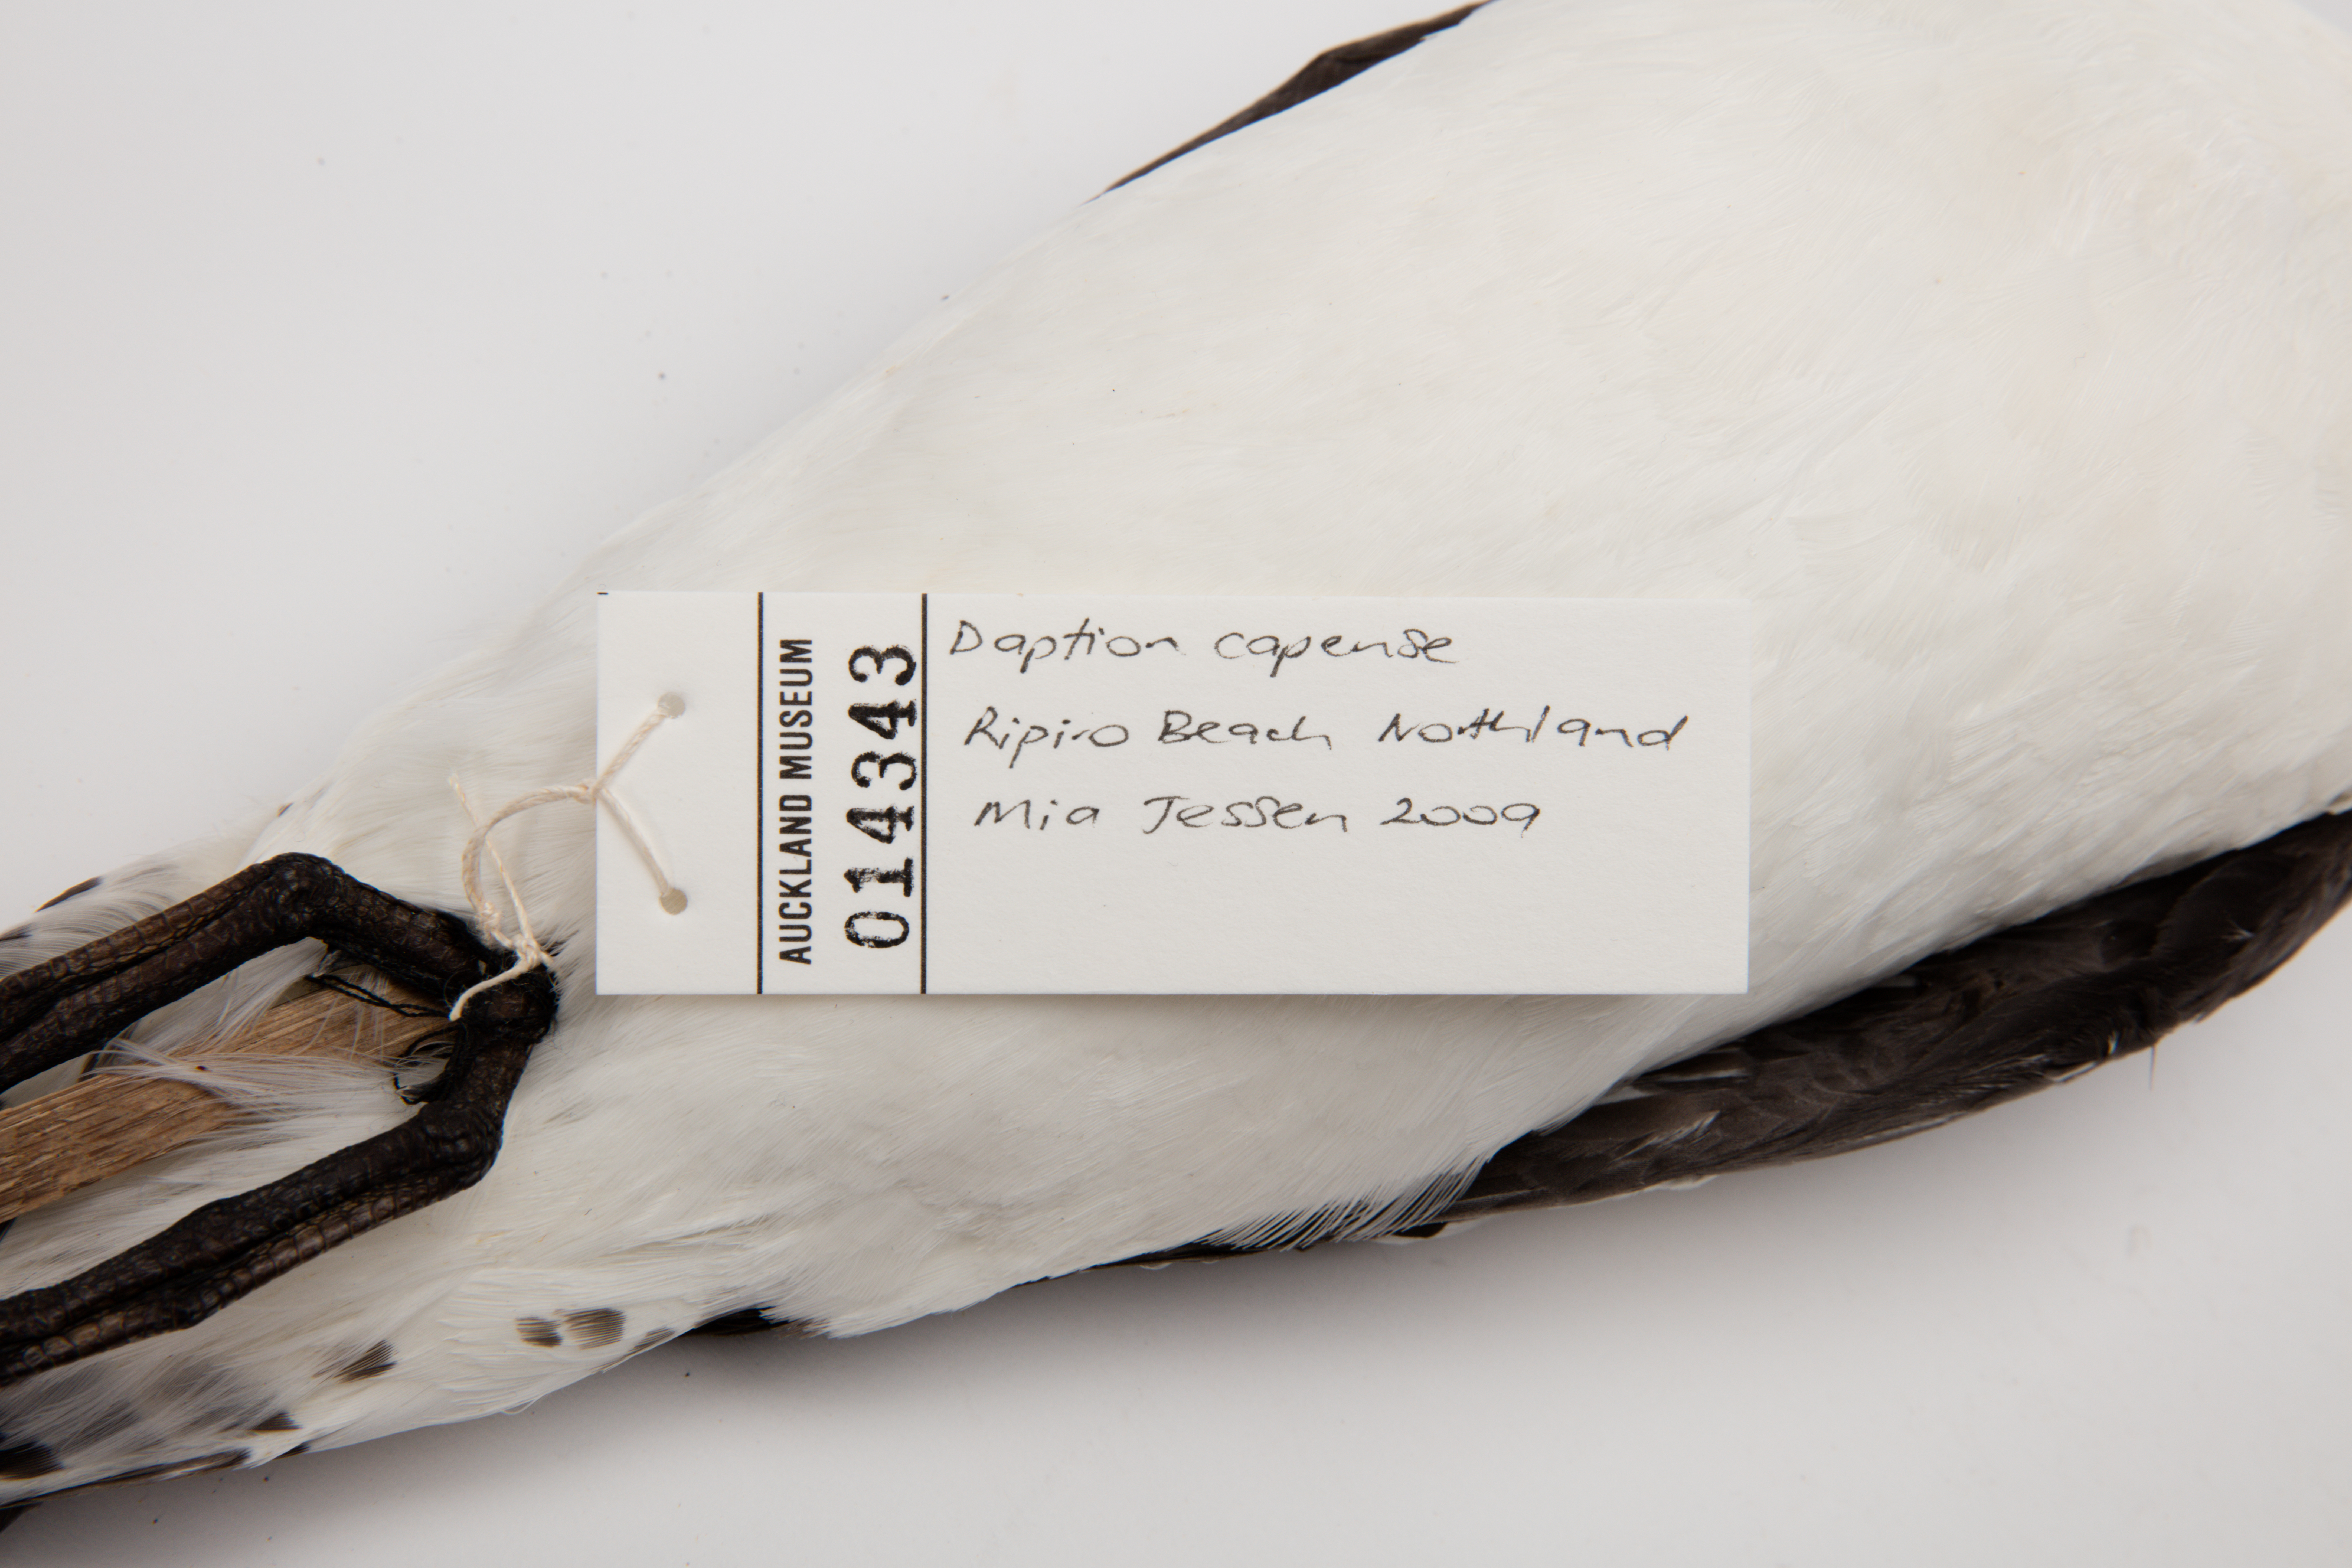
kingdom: Animalia
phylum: Chordata
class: Aves
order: Procellariiformes
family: Procellariidae
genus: Daption
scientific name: Daption capense
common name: Cape petrel
